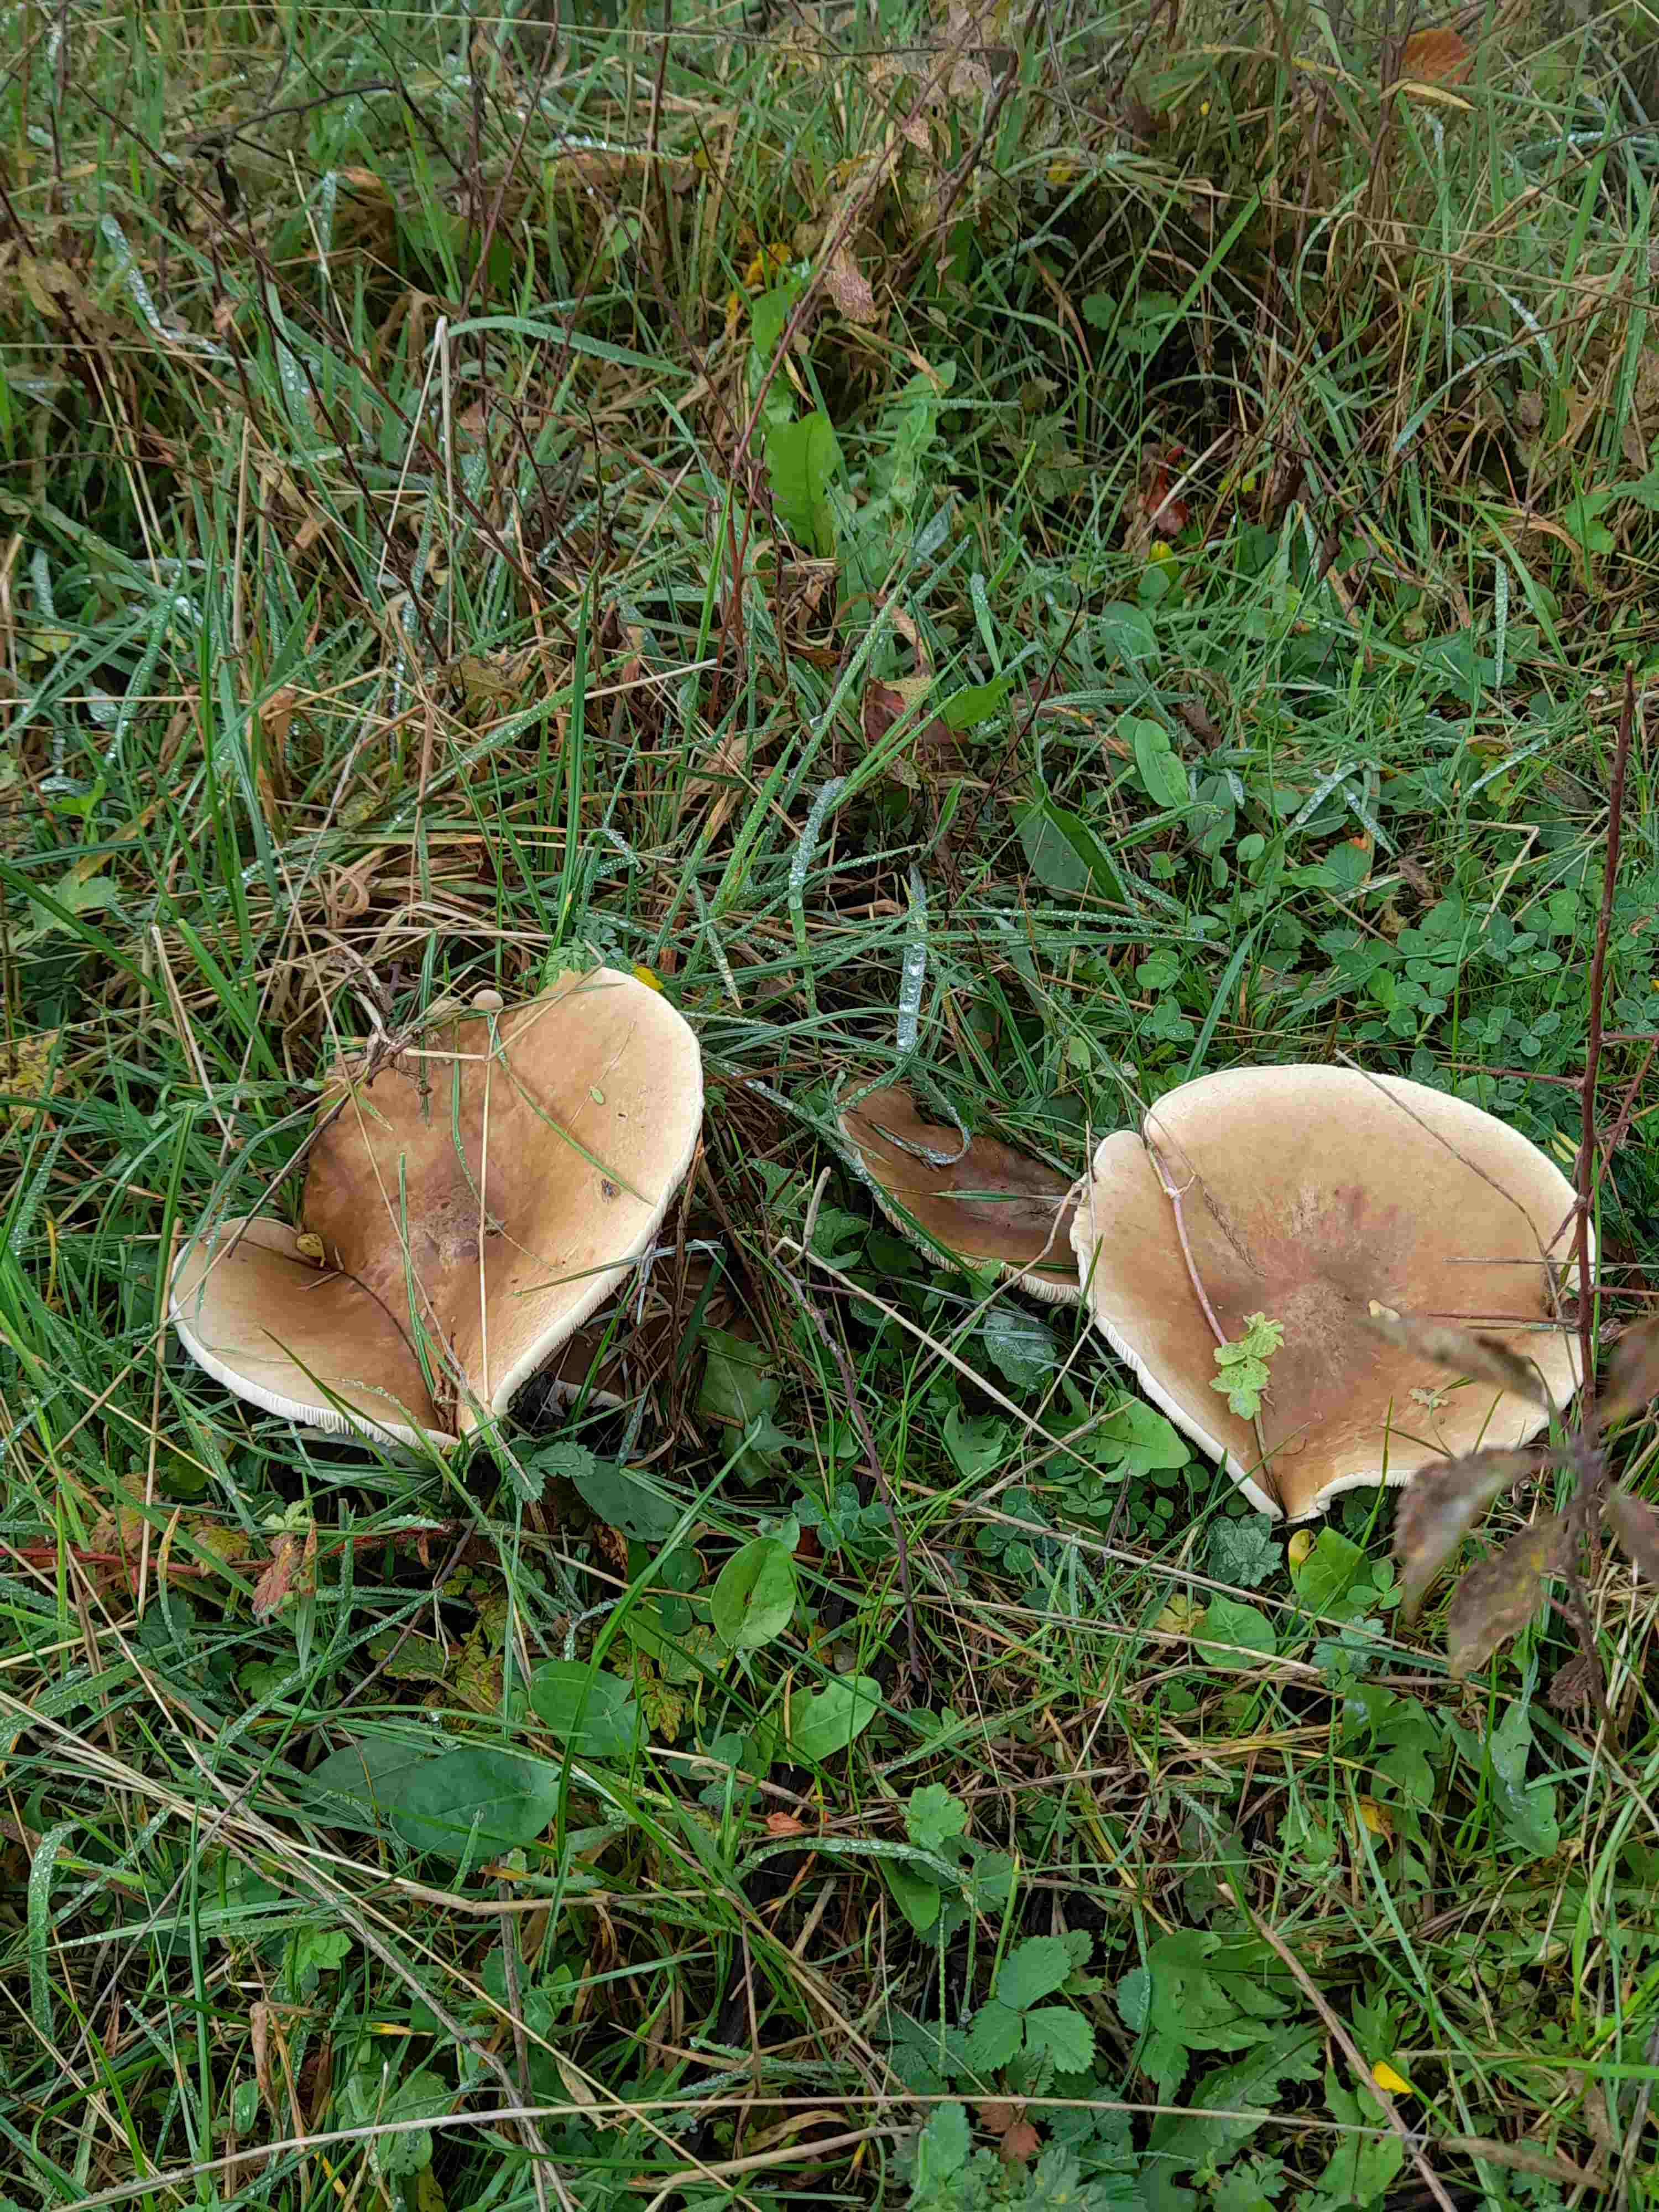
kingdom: Fungi
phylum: Basidiomycota
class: Agaricomycetes
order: Agaricales
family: Tricholomataceae
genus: Melanoleuca
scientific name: Melanoleuca
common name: munkehat
